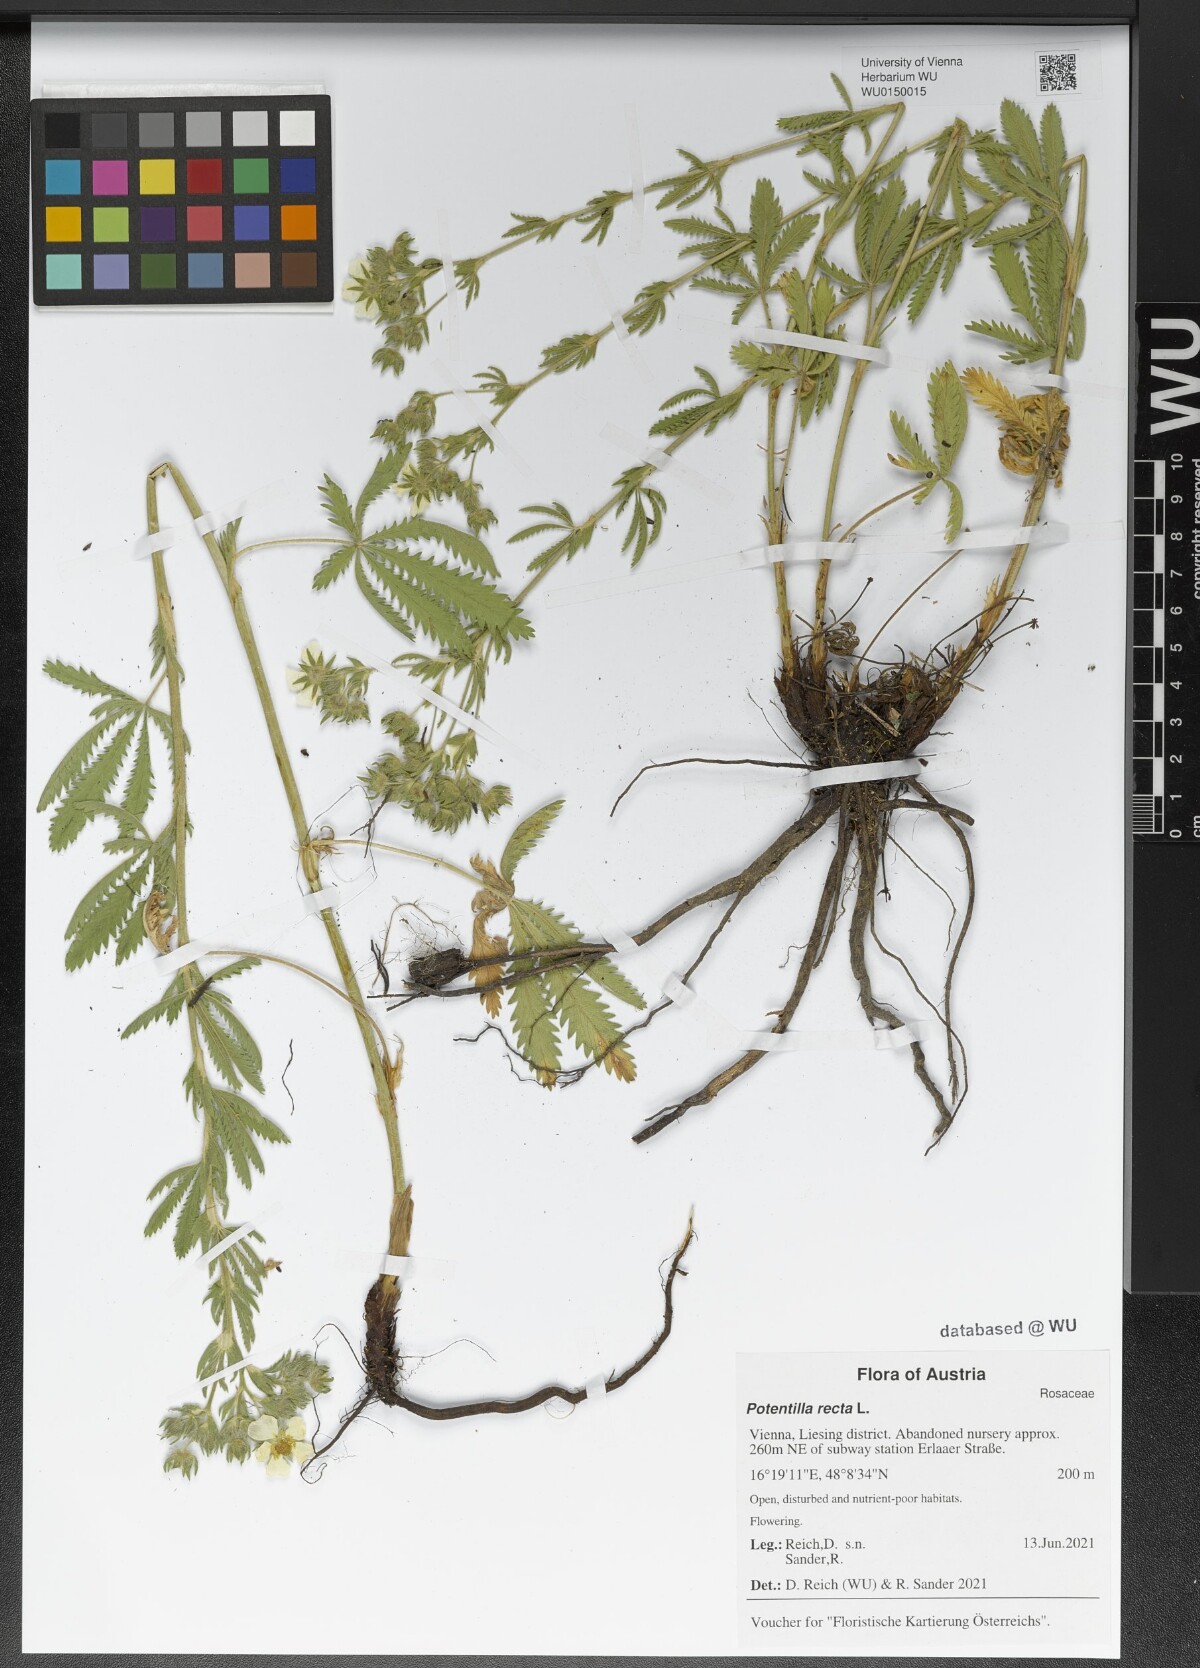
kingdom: Plantae
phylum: Tracheophyta
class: Magnoliopsida
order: Rosales
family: Rosaceae
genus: Potentilla
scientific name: Potentilla recta
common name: Sulphur cinquefoil
